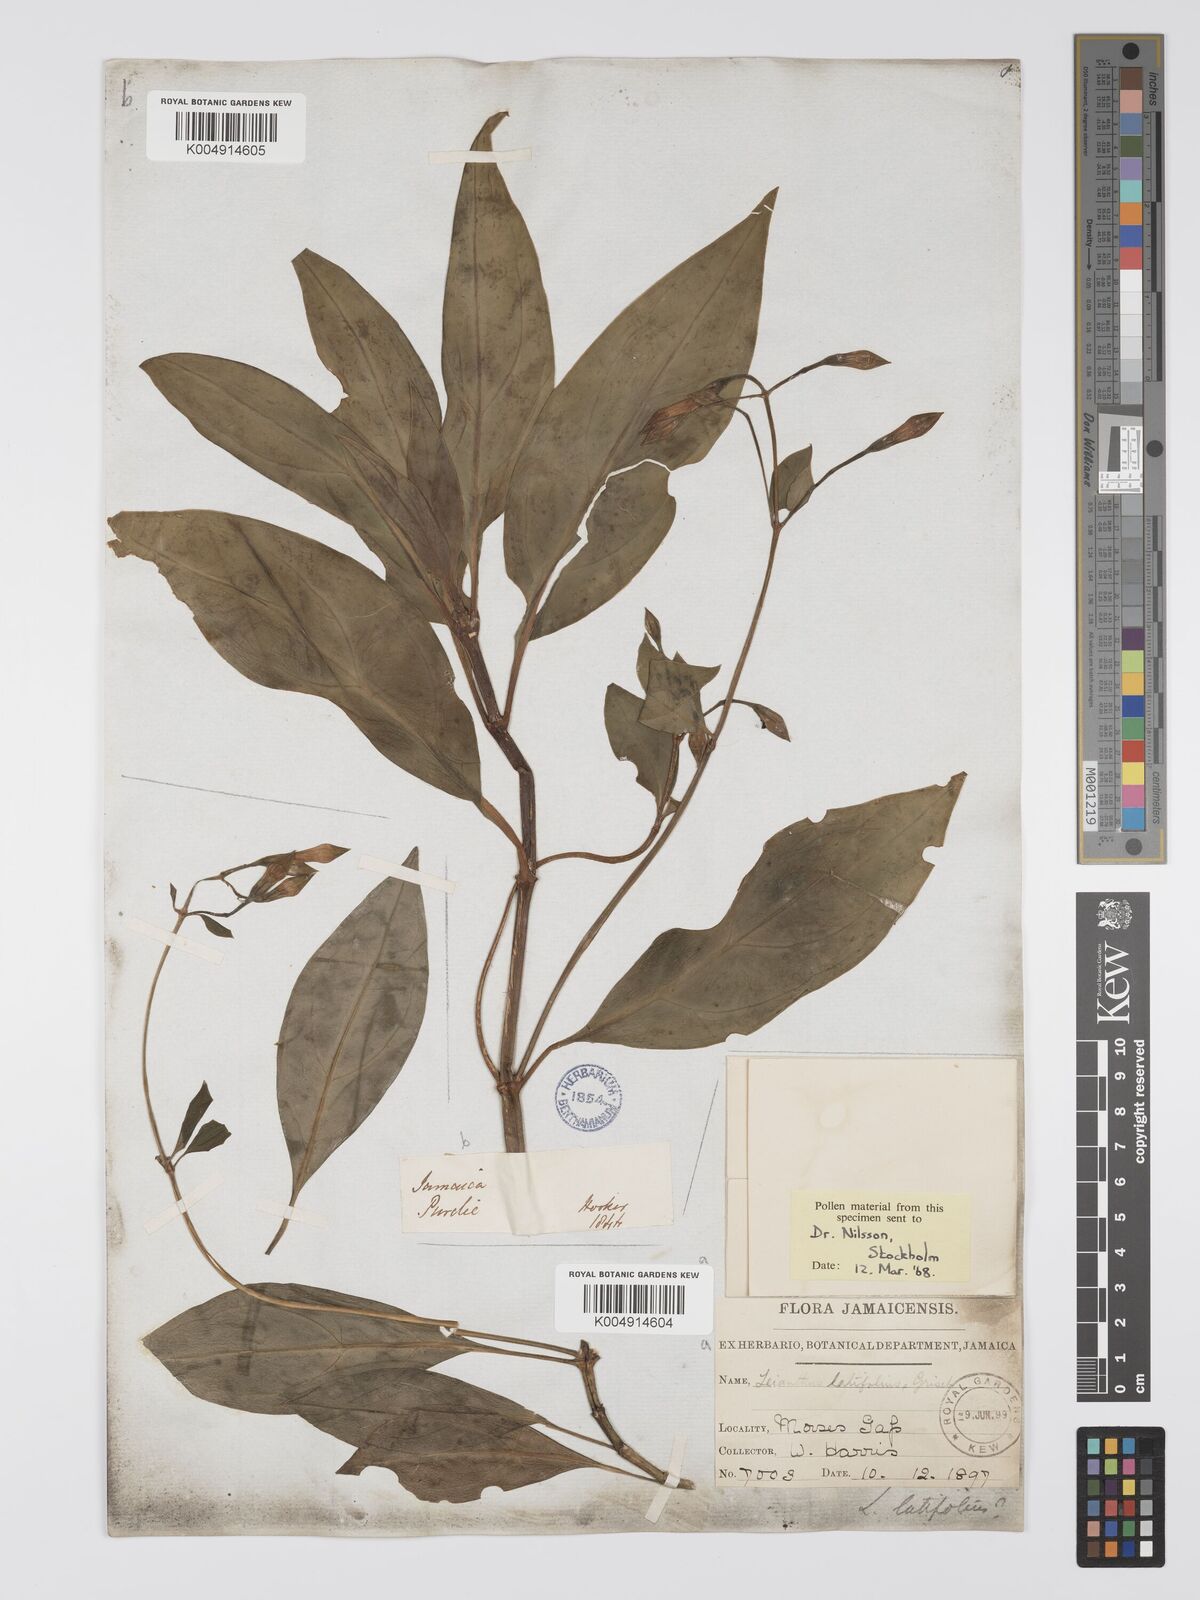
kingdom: Plantae
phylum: Tracheophyta
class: Magnoliopsida
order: Gentianales
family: Gentianaceae
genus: Lisianthus
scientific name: Lisianthus latifolius
